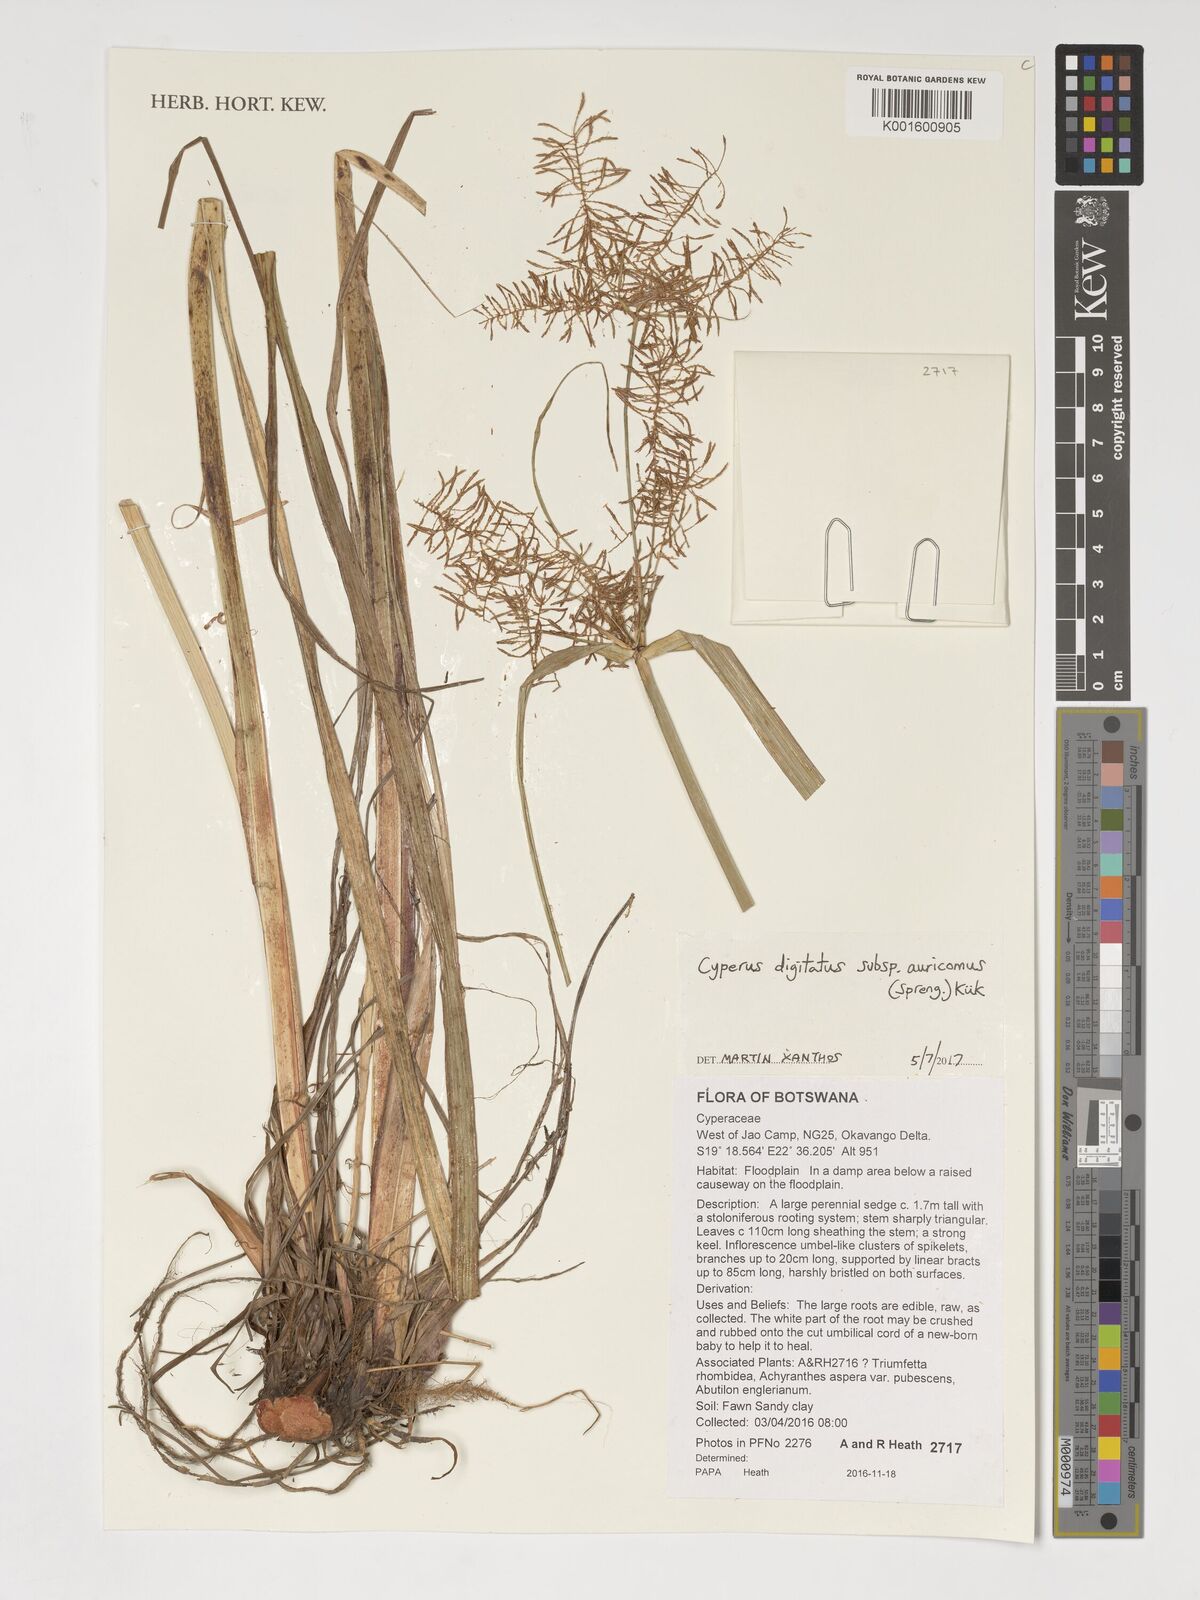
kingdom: Plantae
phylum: Tracheophyta
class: Liliopsida
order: Poales
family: Cyperaceae
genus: Cyperus
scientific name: Cyperus digitatus
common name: Finger flatsedge
